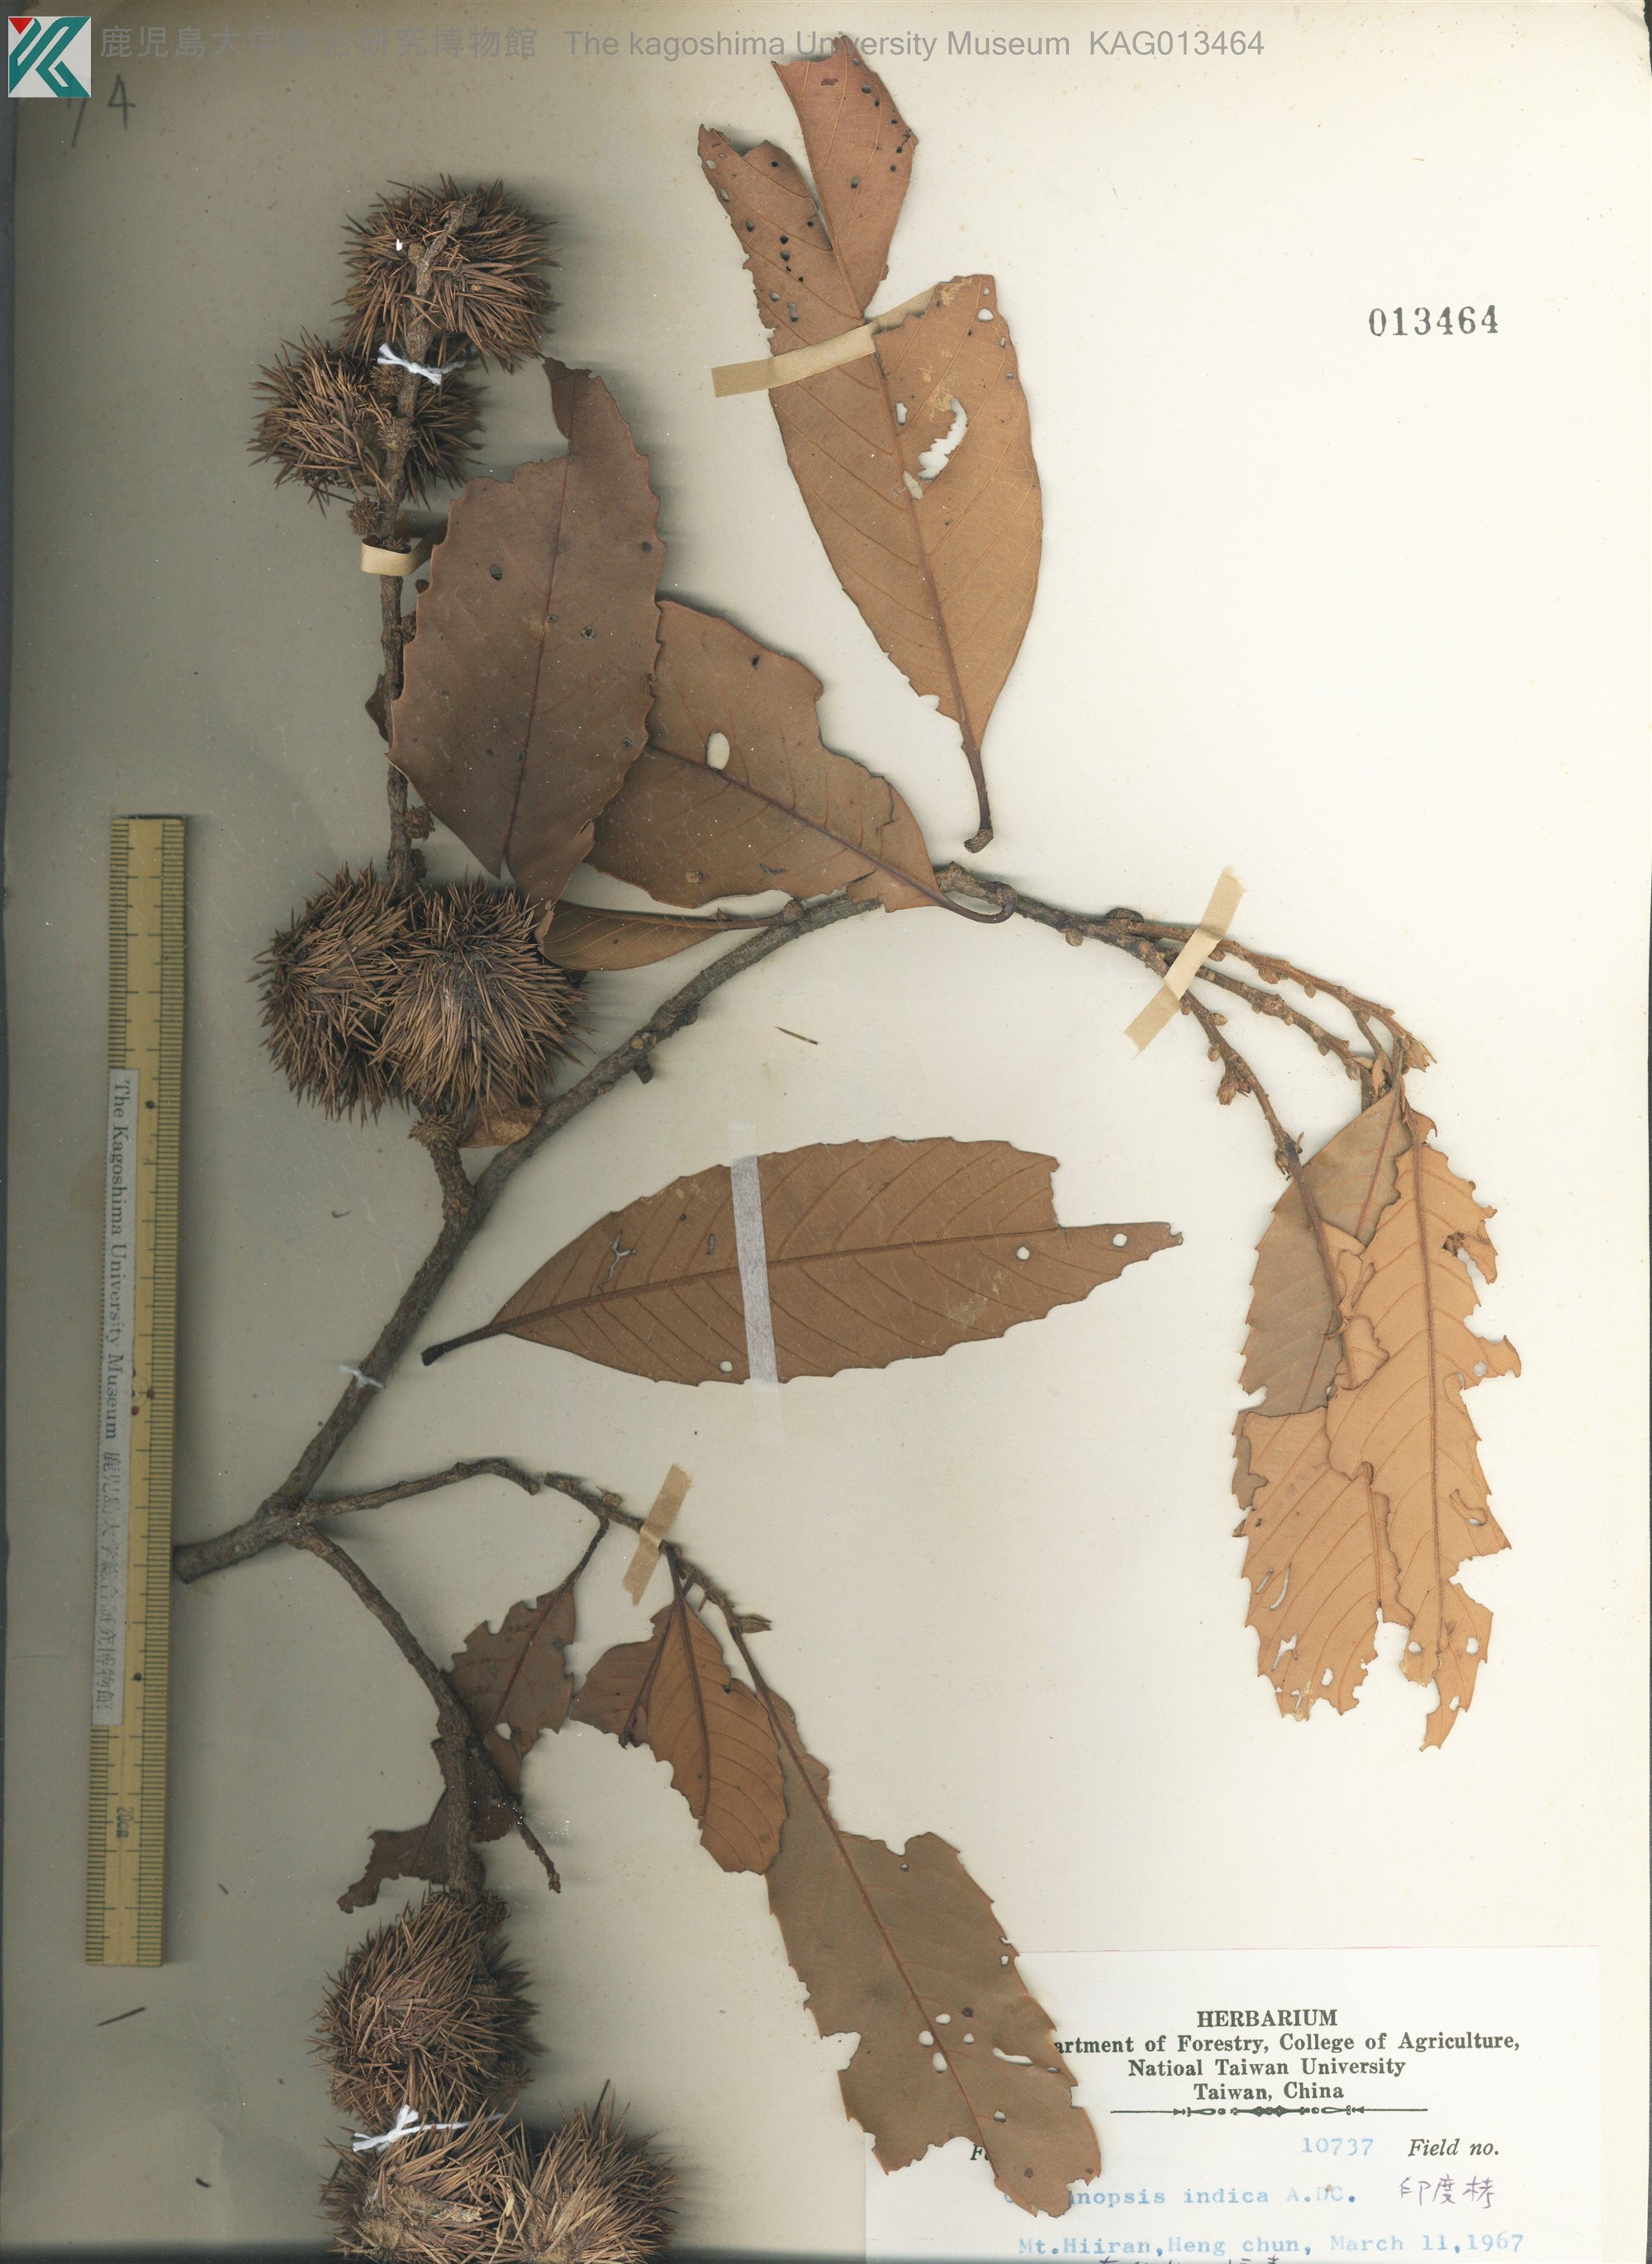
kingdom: Plantae
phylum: Tracheophyta
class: Magnoliopsida
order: Fagales
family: Fagaceae
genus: Castanopsis
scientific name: Castanopsis indica
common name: Indian-chestnut
